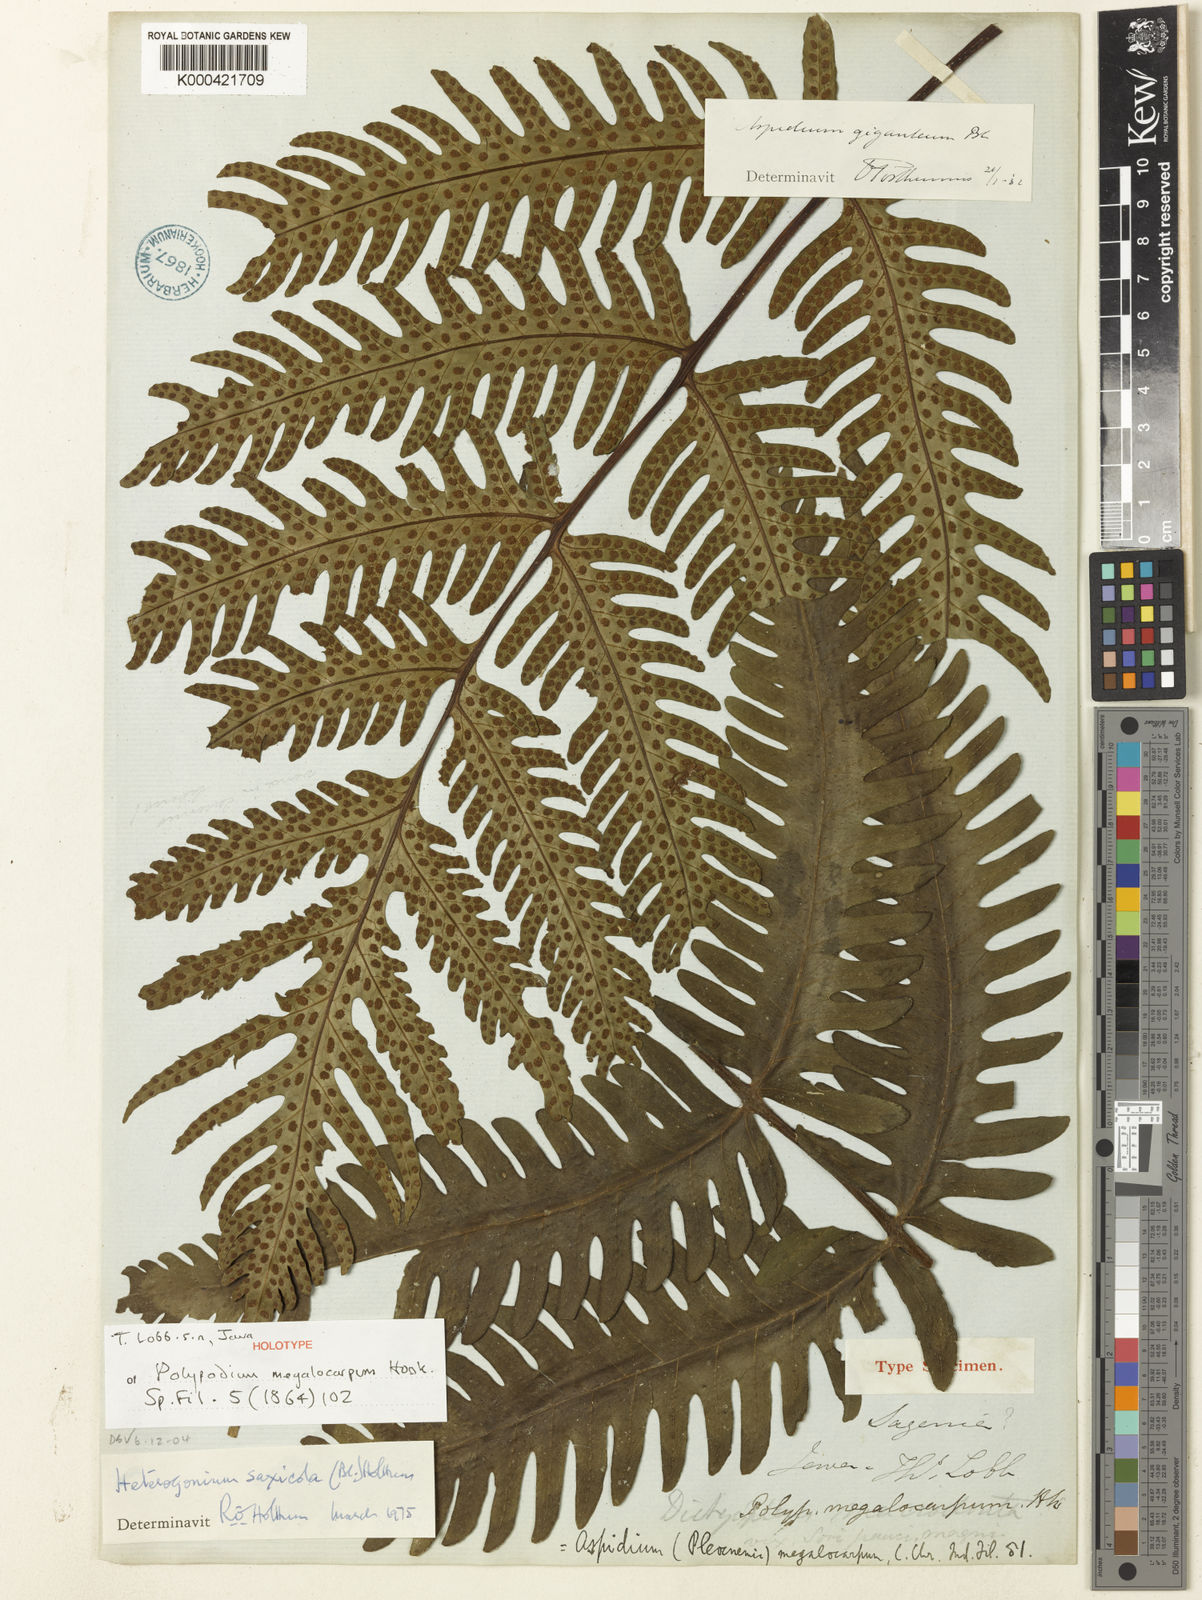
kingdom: Plantae
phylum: Tracheophyta
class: Polypodiopsida
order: Polypodiales
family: Tectariaceae
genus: Tectaria
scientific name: Tectaria gigantea
